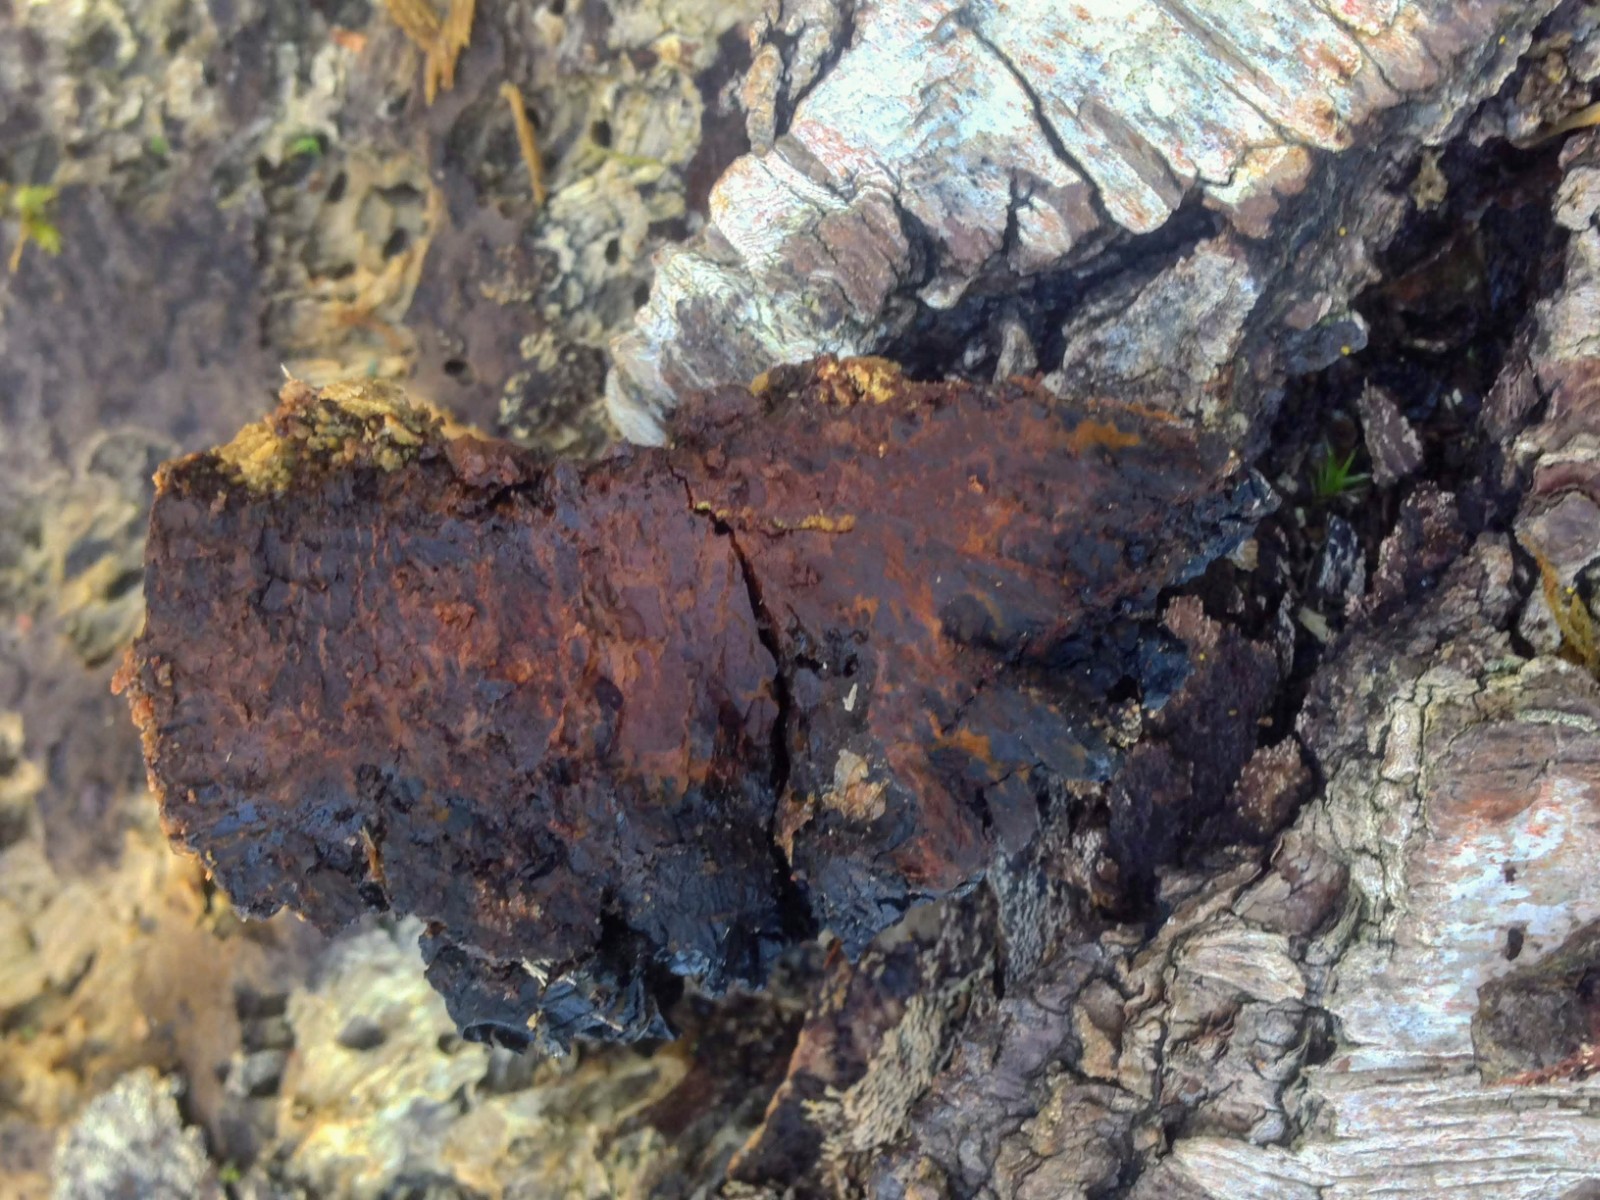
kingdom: Fungi
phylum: Basidiomycota
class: Agaricomycetes
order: Hymenochaetales
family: Hymenochaetaceae
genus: Inonotus
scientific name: Inonotus obliquus
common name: birke-spejlporesvamp
